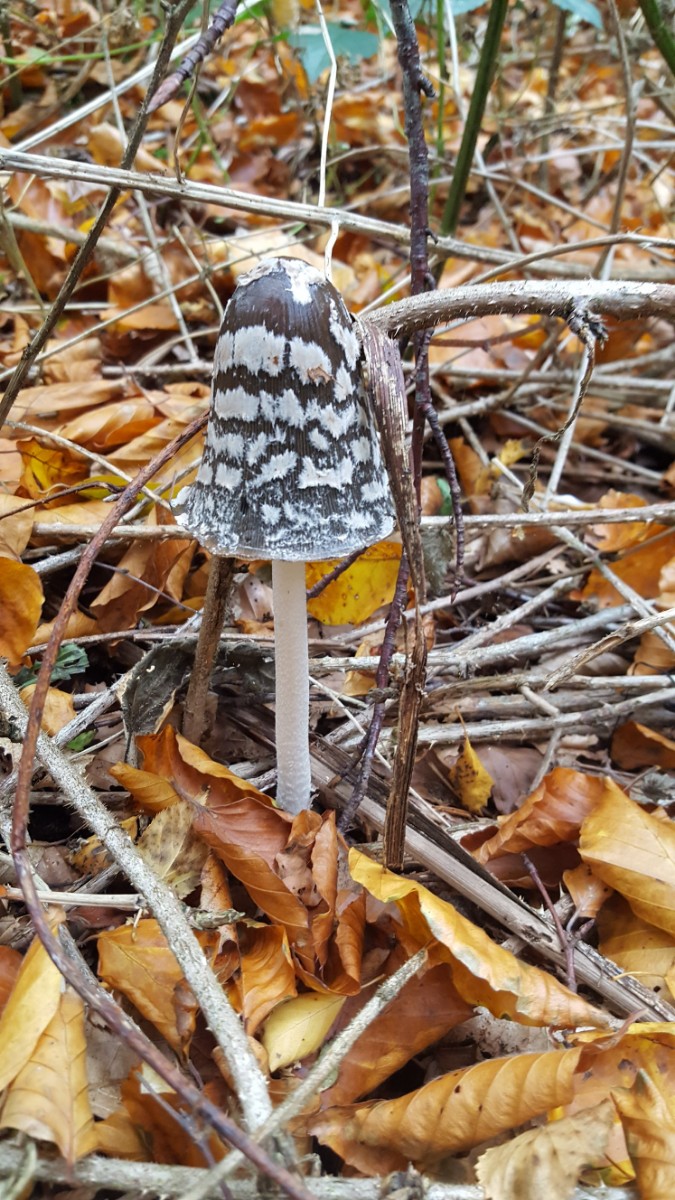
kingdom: Fungi
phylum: Basidiomycota
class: Agaricomycetes
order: Agaricales
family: Psathyrellaceae
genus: Coprinopsis
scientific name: Coprinopsis picacea
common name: skade-blækhat
